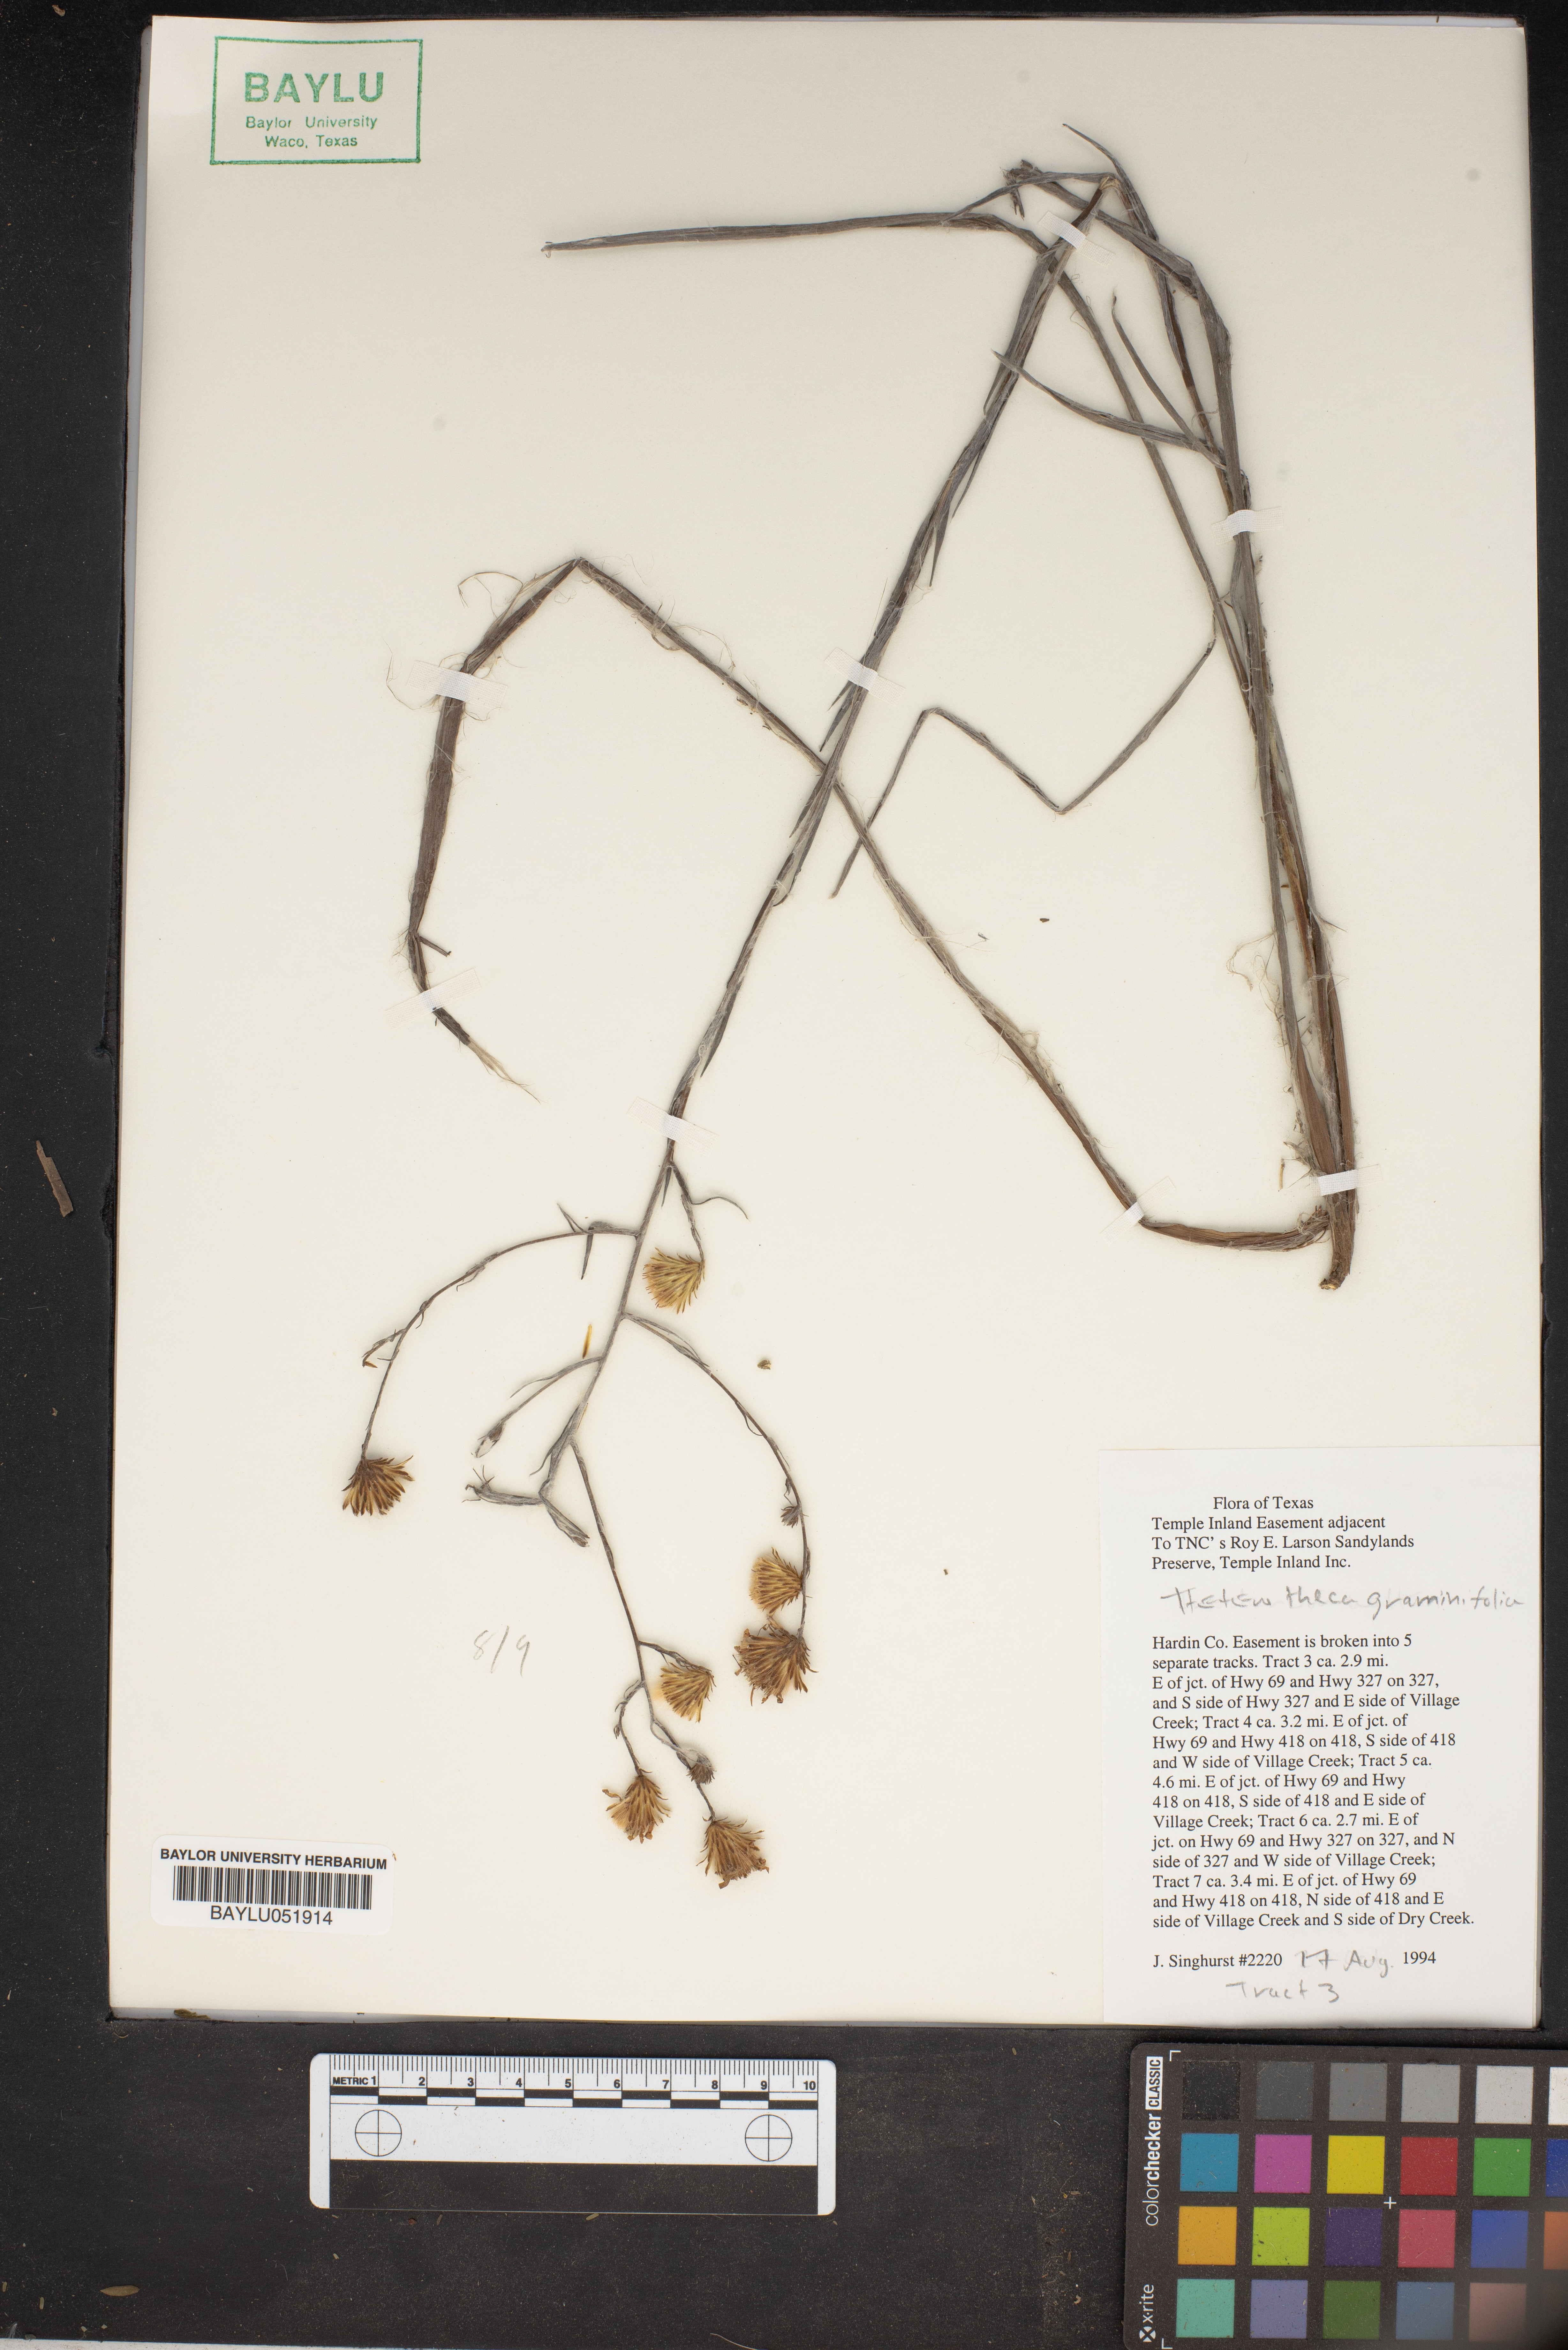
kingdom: Plantae
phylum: Tracheophyta
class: Magnoliopsida
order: Asterales
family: Asteraceae
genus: Pityopsis
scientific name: Pityopsis graminifolia
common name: Grass-leaf golden-aster
